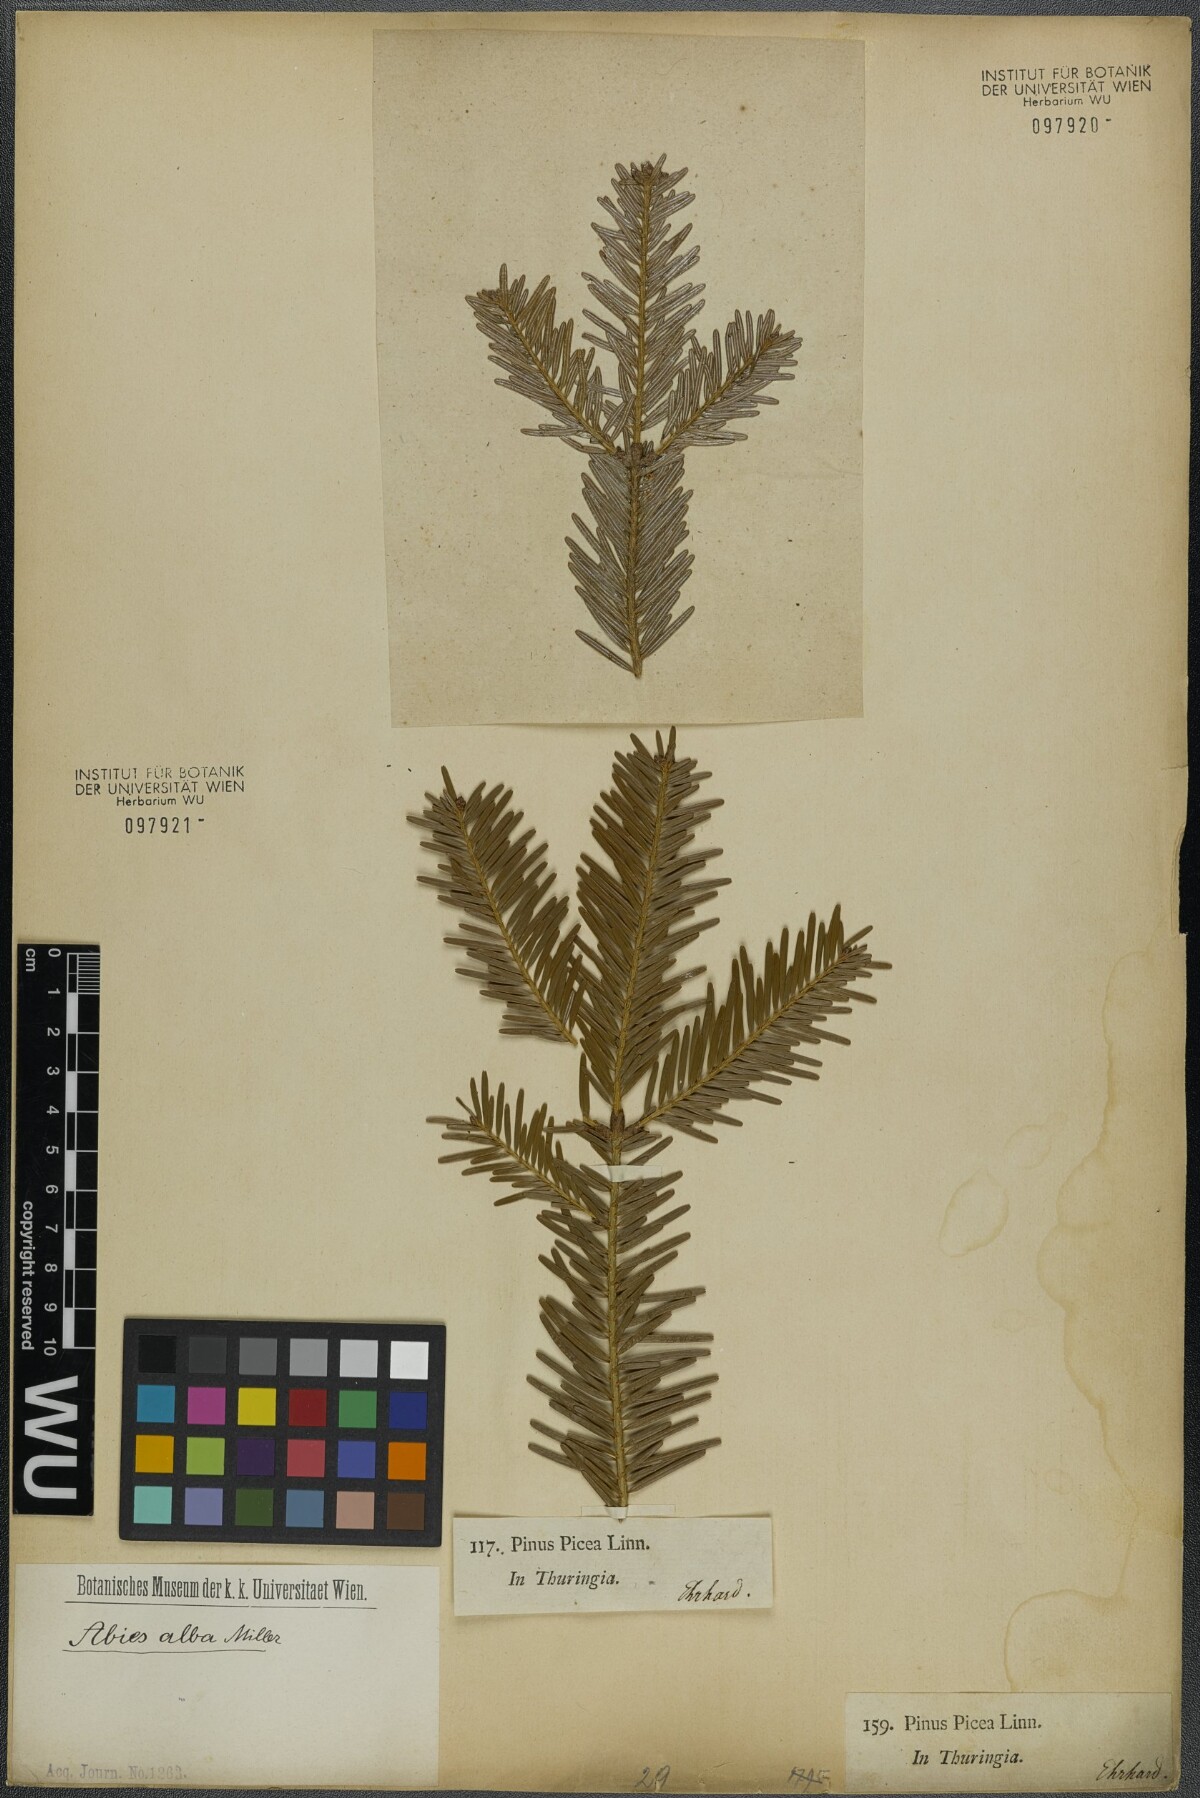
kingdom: Plantae
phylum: Tracheophyta
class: Pinopsida
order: Pinales
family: Pinaceae
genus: Abies
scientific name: Abies alba
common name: Silver fir
